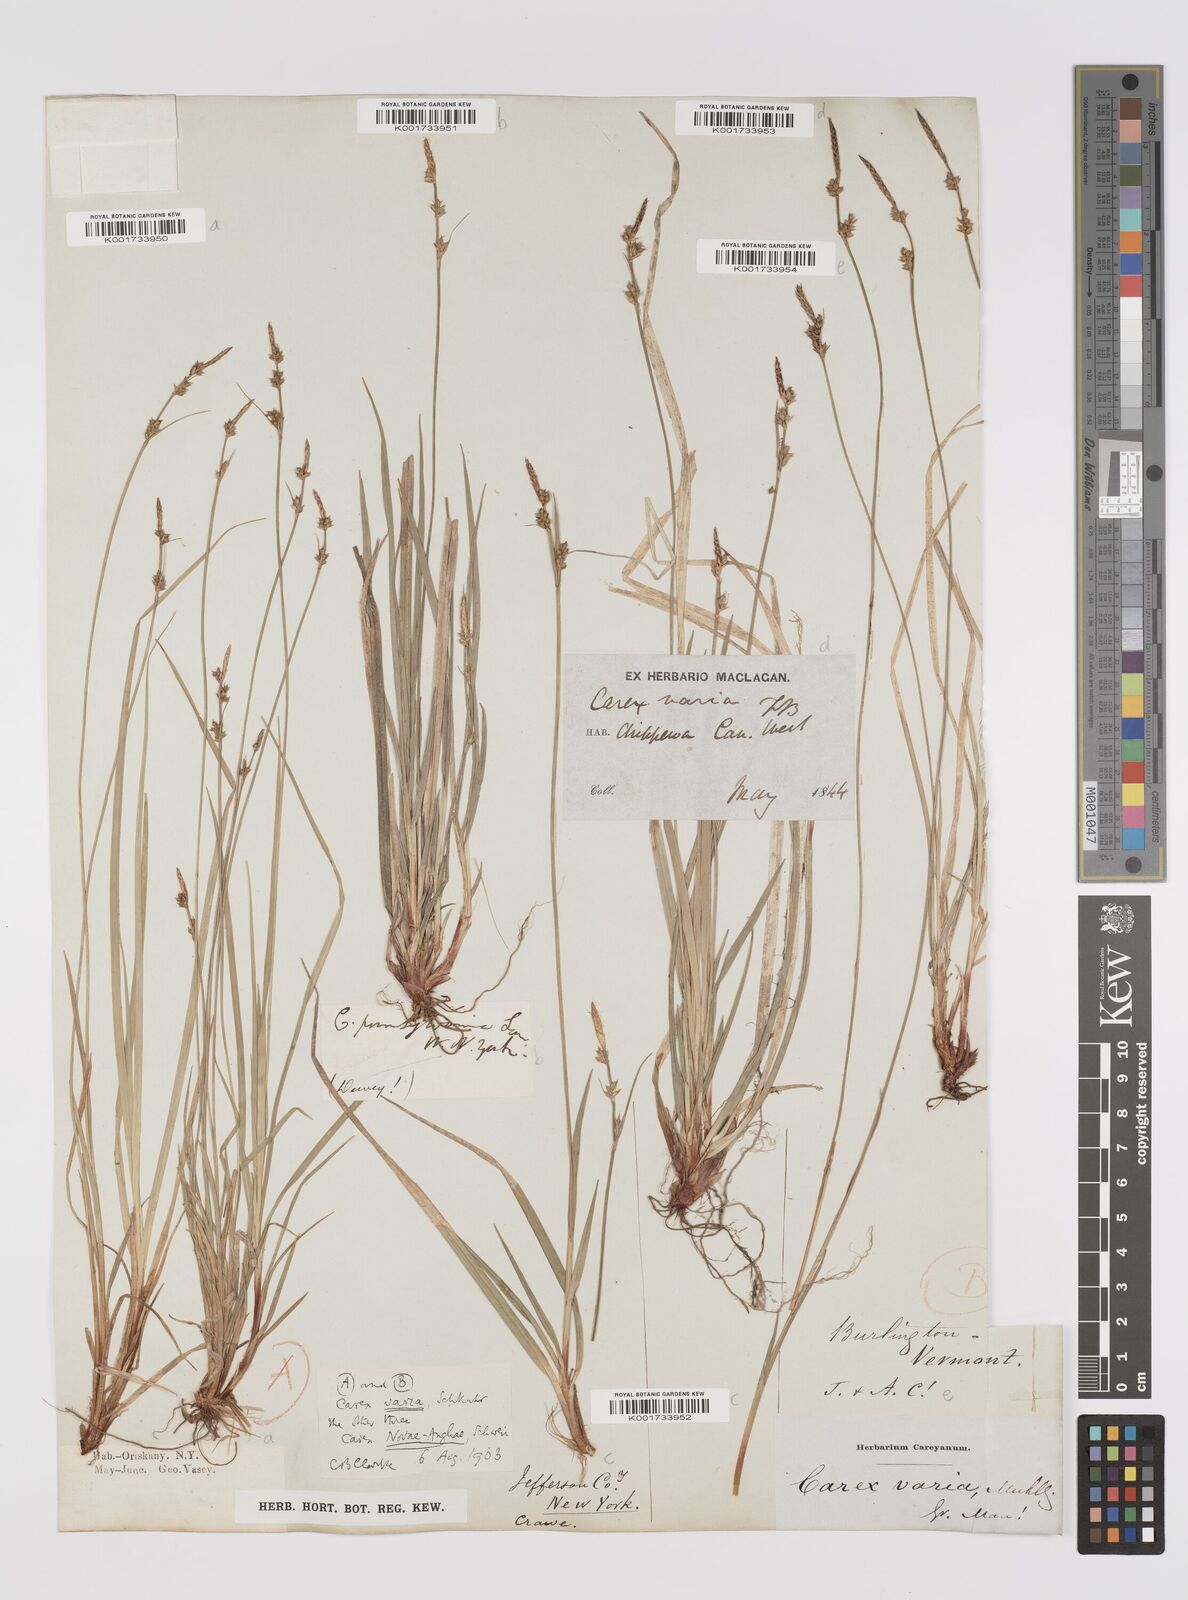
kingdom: Plantae
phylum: Tracheophyta
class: Liliopsida
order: Poales
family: Cyperaceae
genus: Carex
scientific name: Carex albicans
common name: Bellow-beaked sedge
